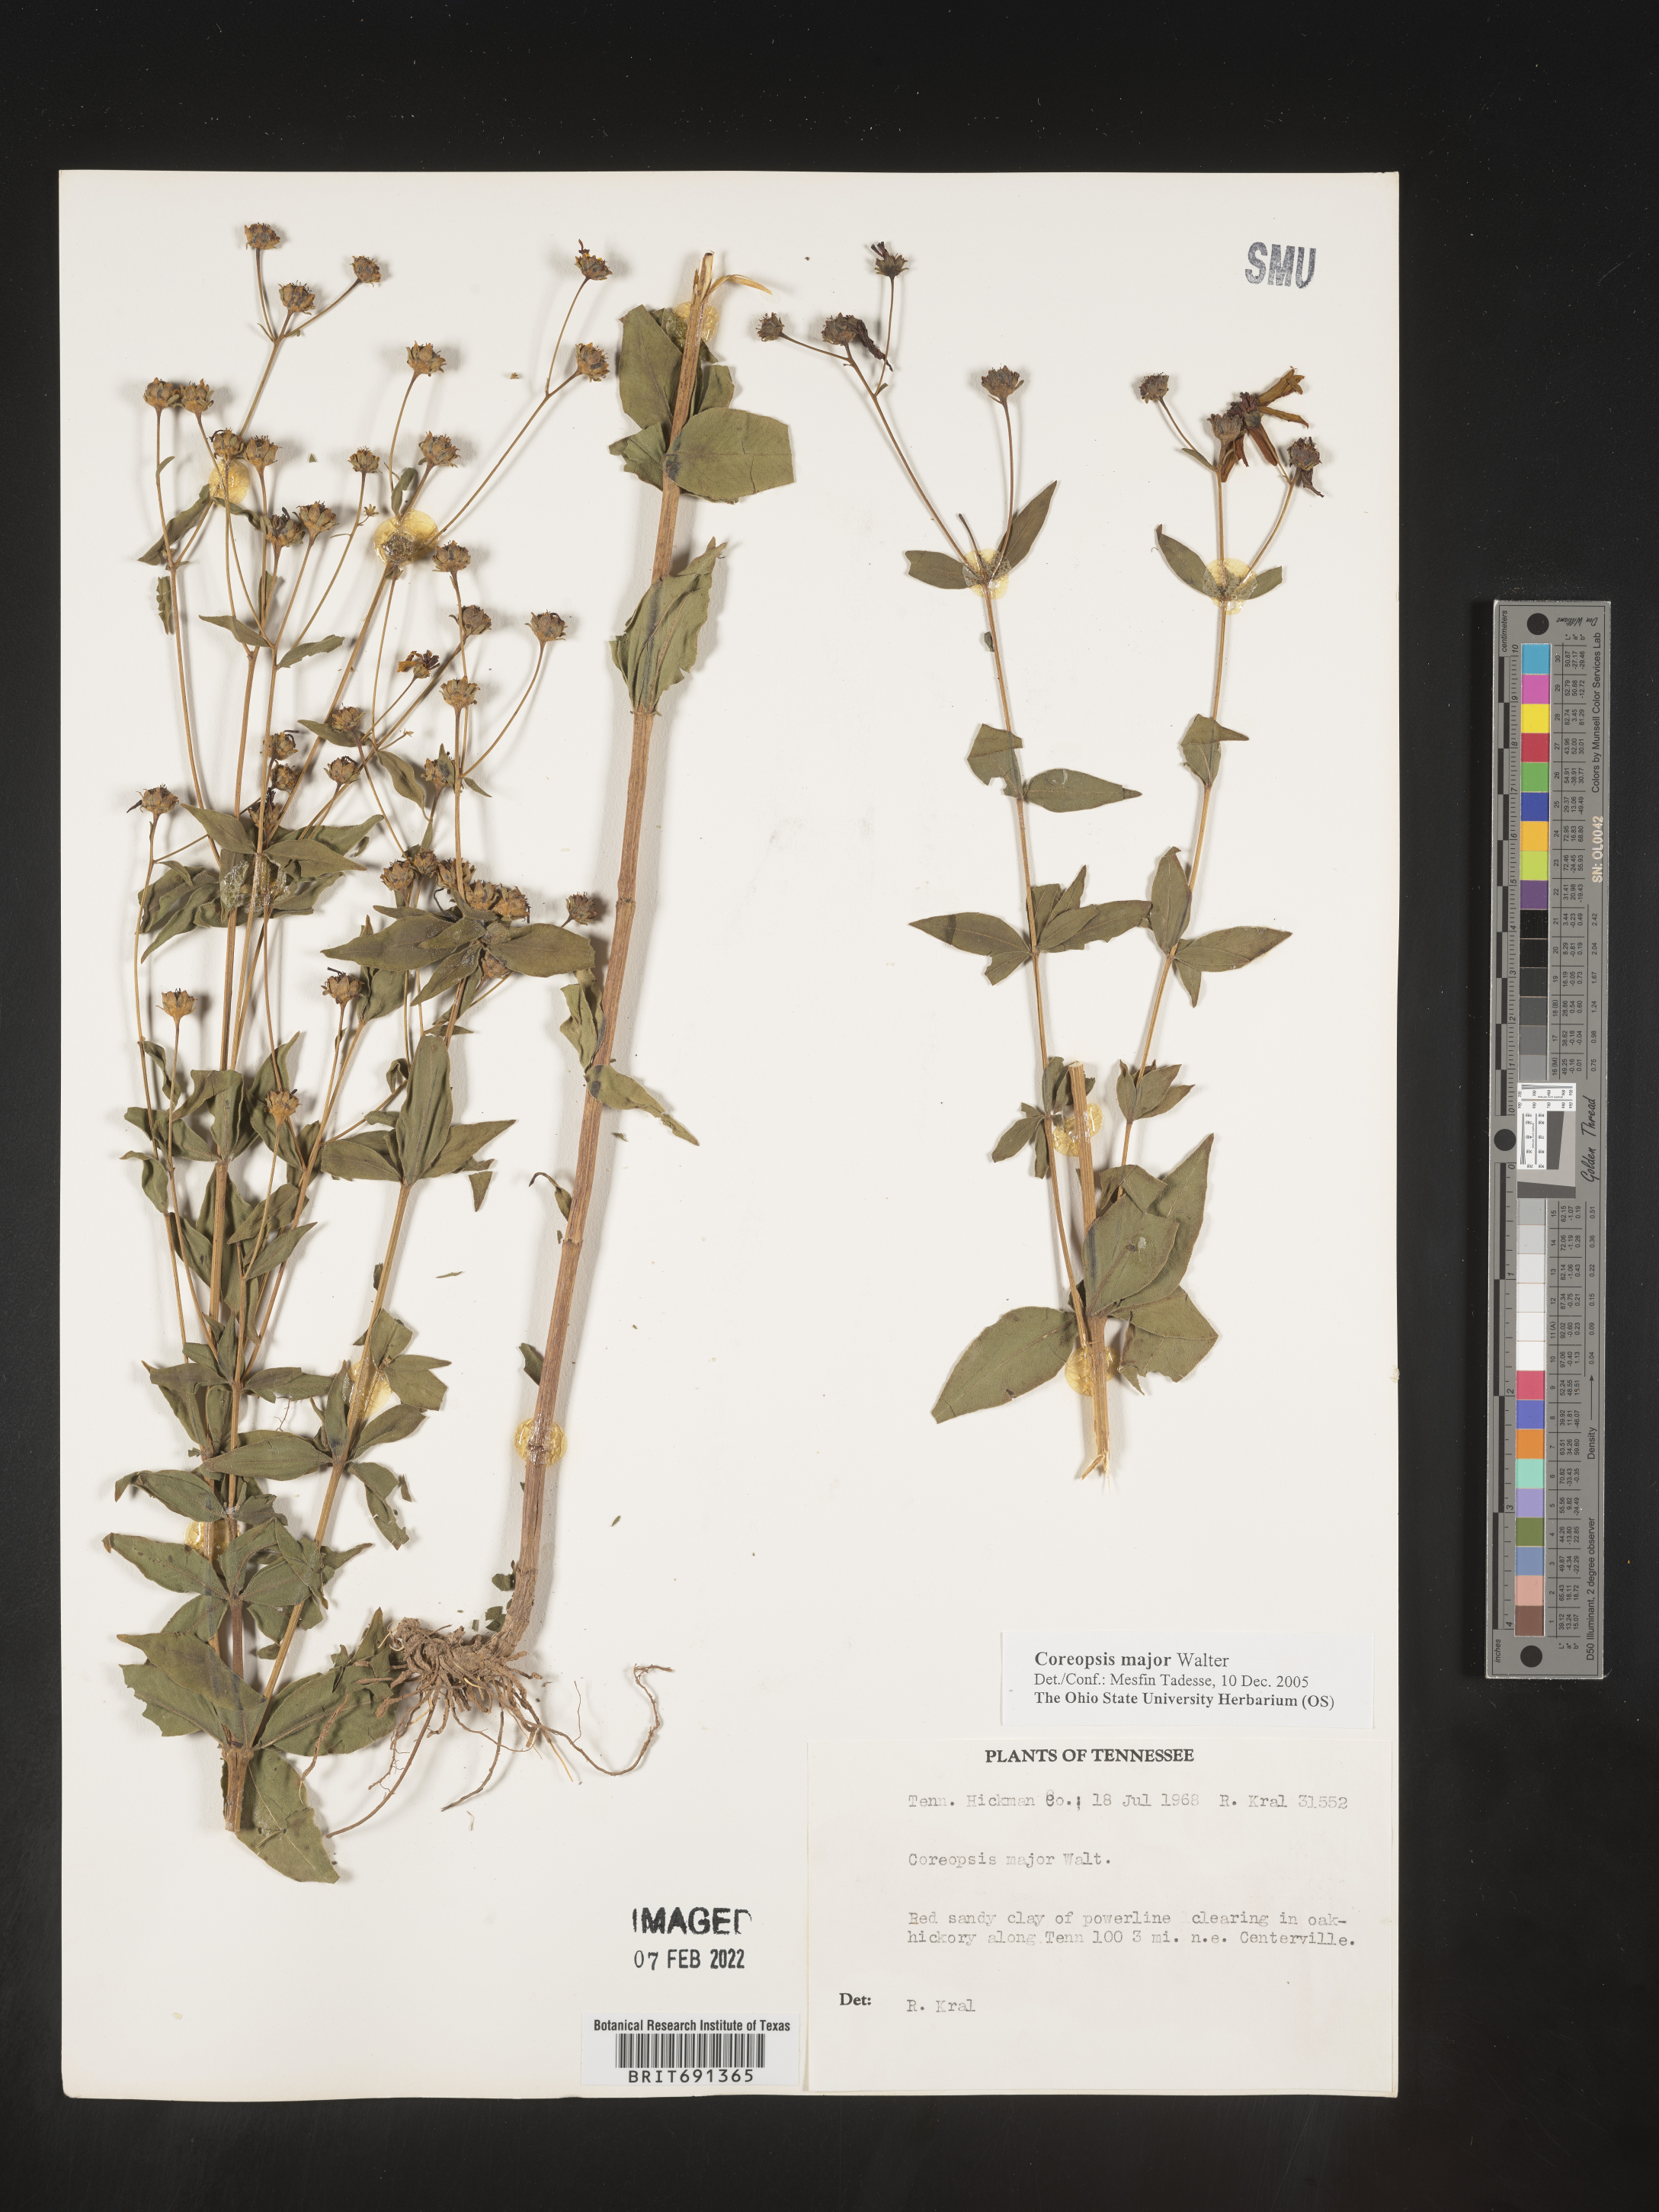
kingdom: Plantae
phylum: Tracheophyta
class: Magnoliopsida
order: Asterales
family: Asteraceae
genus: Coreopsis
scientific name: Coreopsis major
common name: Forest tickseed
